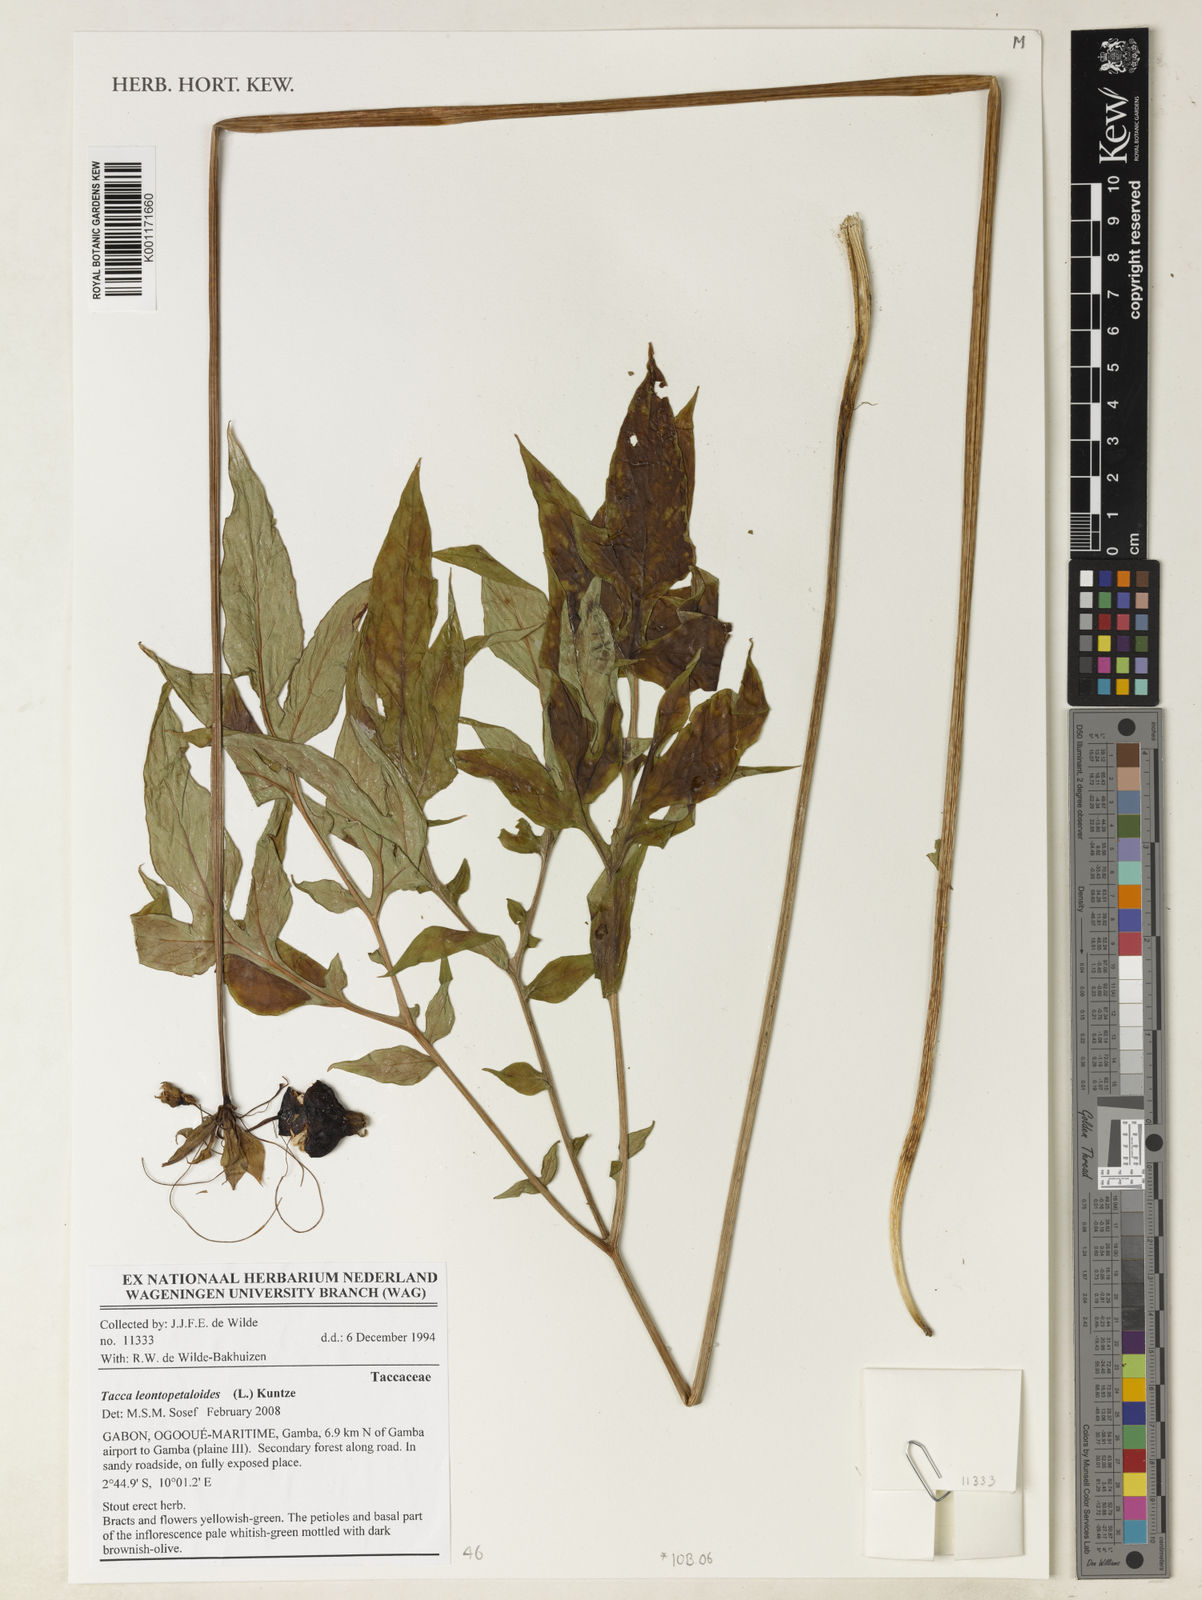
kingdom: Plantae
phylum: Tracheophyta
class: Liliopsida
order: Dioscoreales
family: Dioscoreaceae
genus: Tacca
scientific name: Tacca leontopetaloides
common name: Arrowroot
